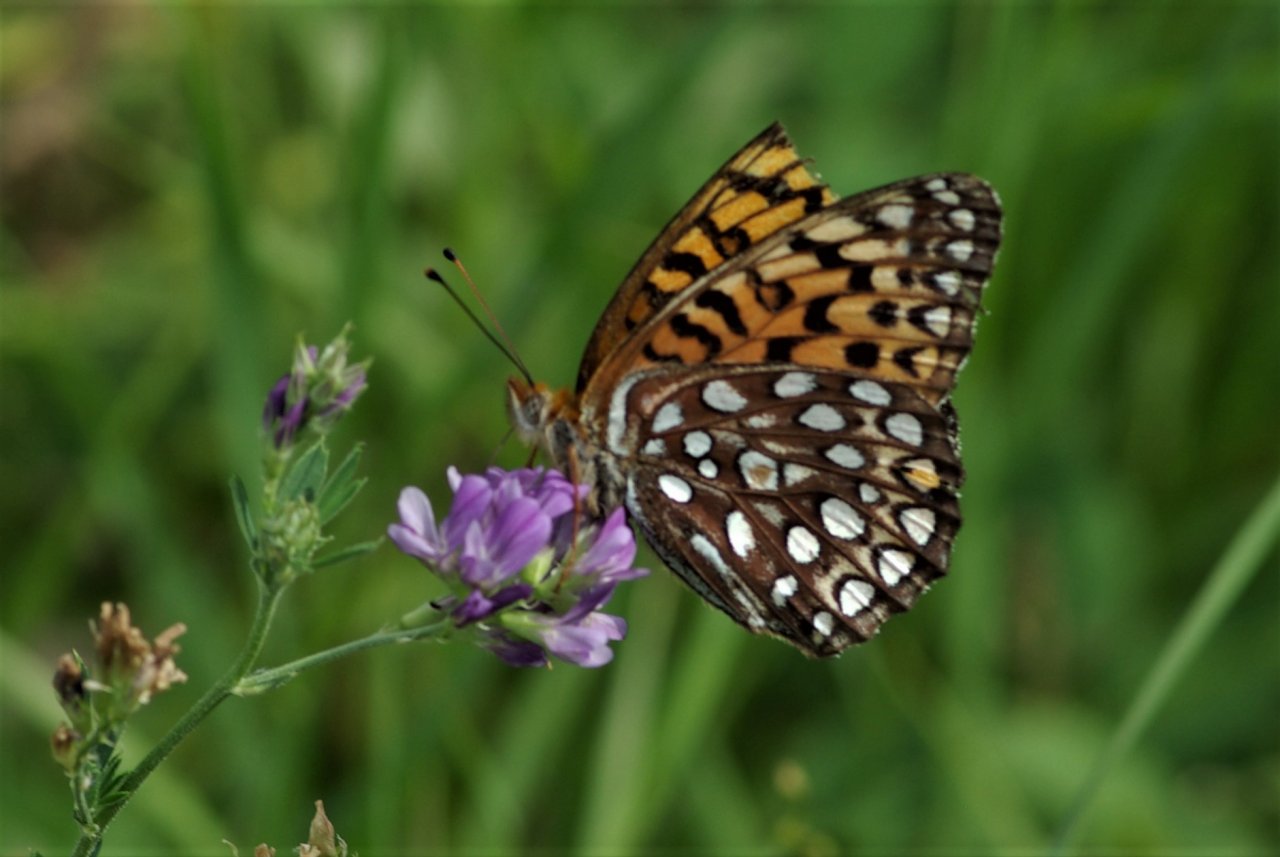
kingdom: Animalia
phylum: Arthropoda
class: Insecta
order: Lepidoptera
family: Nymphalidae
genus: Speyeria
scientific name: Speyeria atlantis
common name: Atlantis Fritillary
